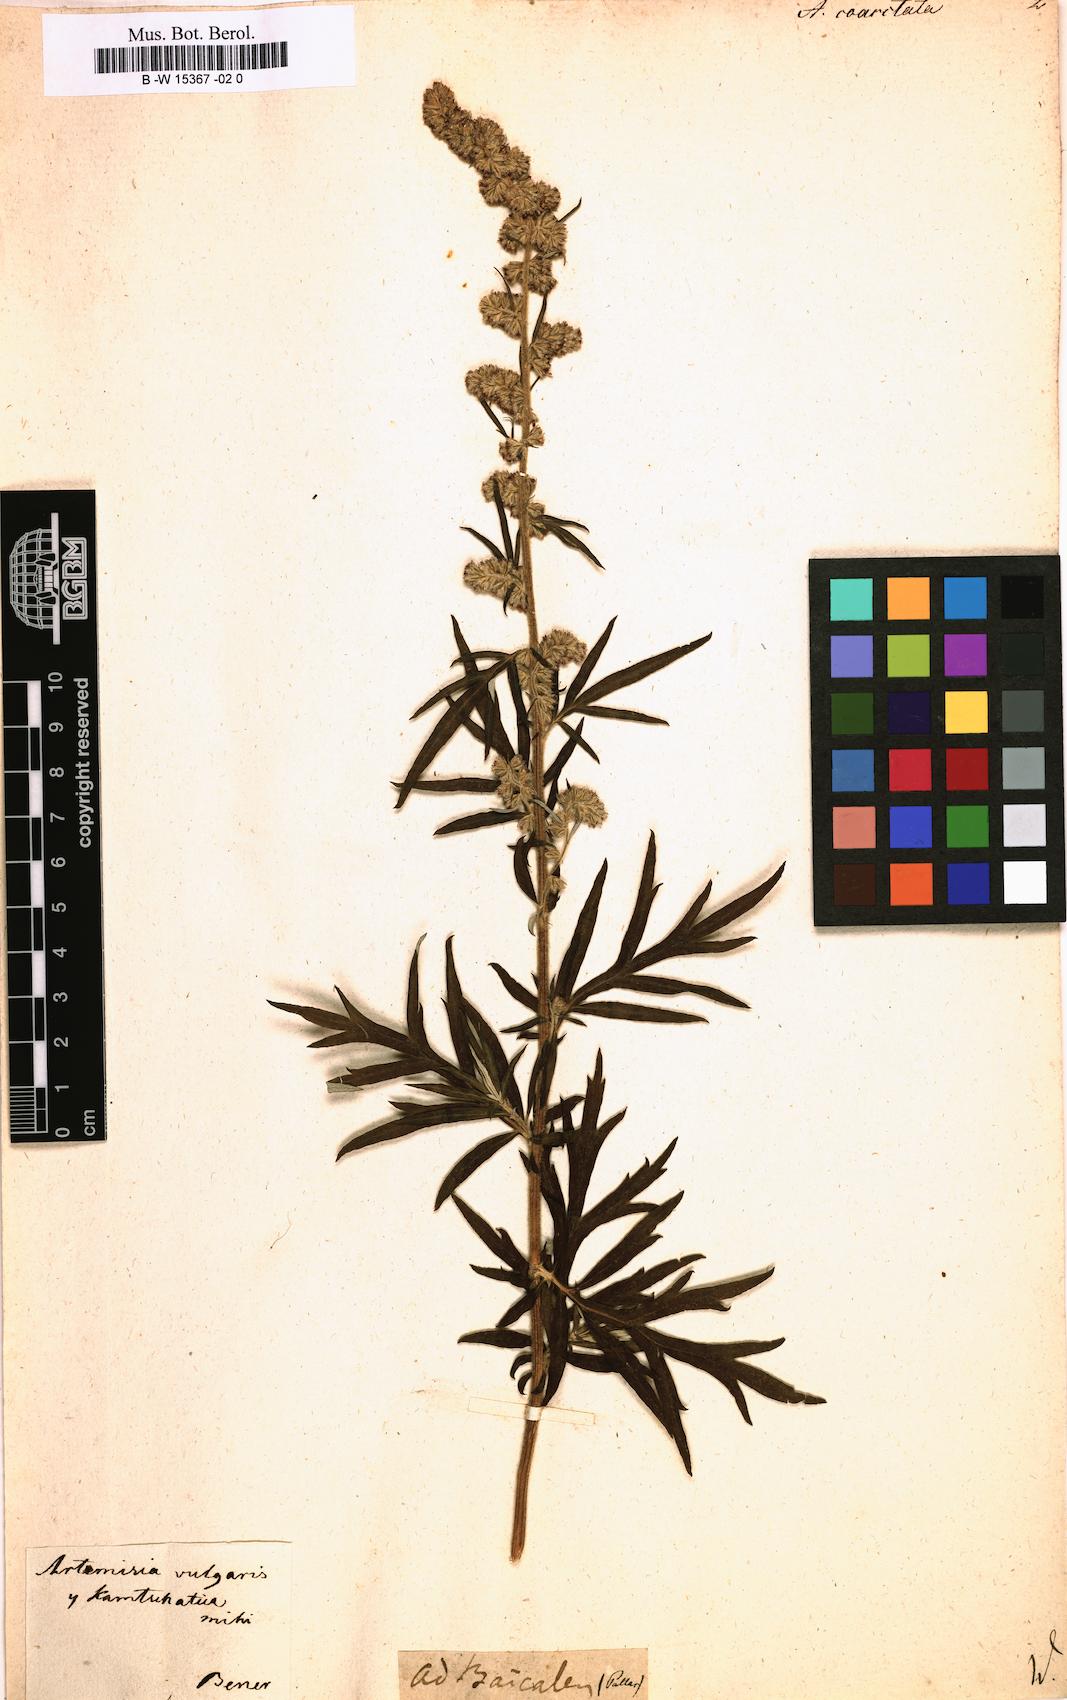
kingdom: Plantae
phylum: Tracheophyta
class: Magnoliopsida
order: Asterales
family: Asteraceae
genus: Artemisia
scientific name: Artemisia campestris
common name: Field wormwood
